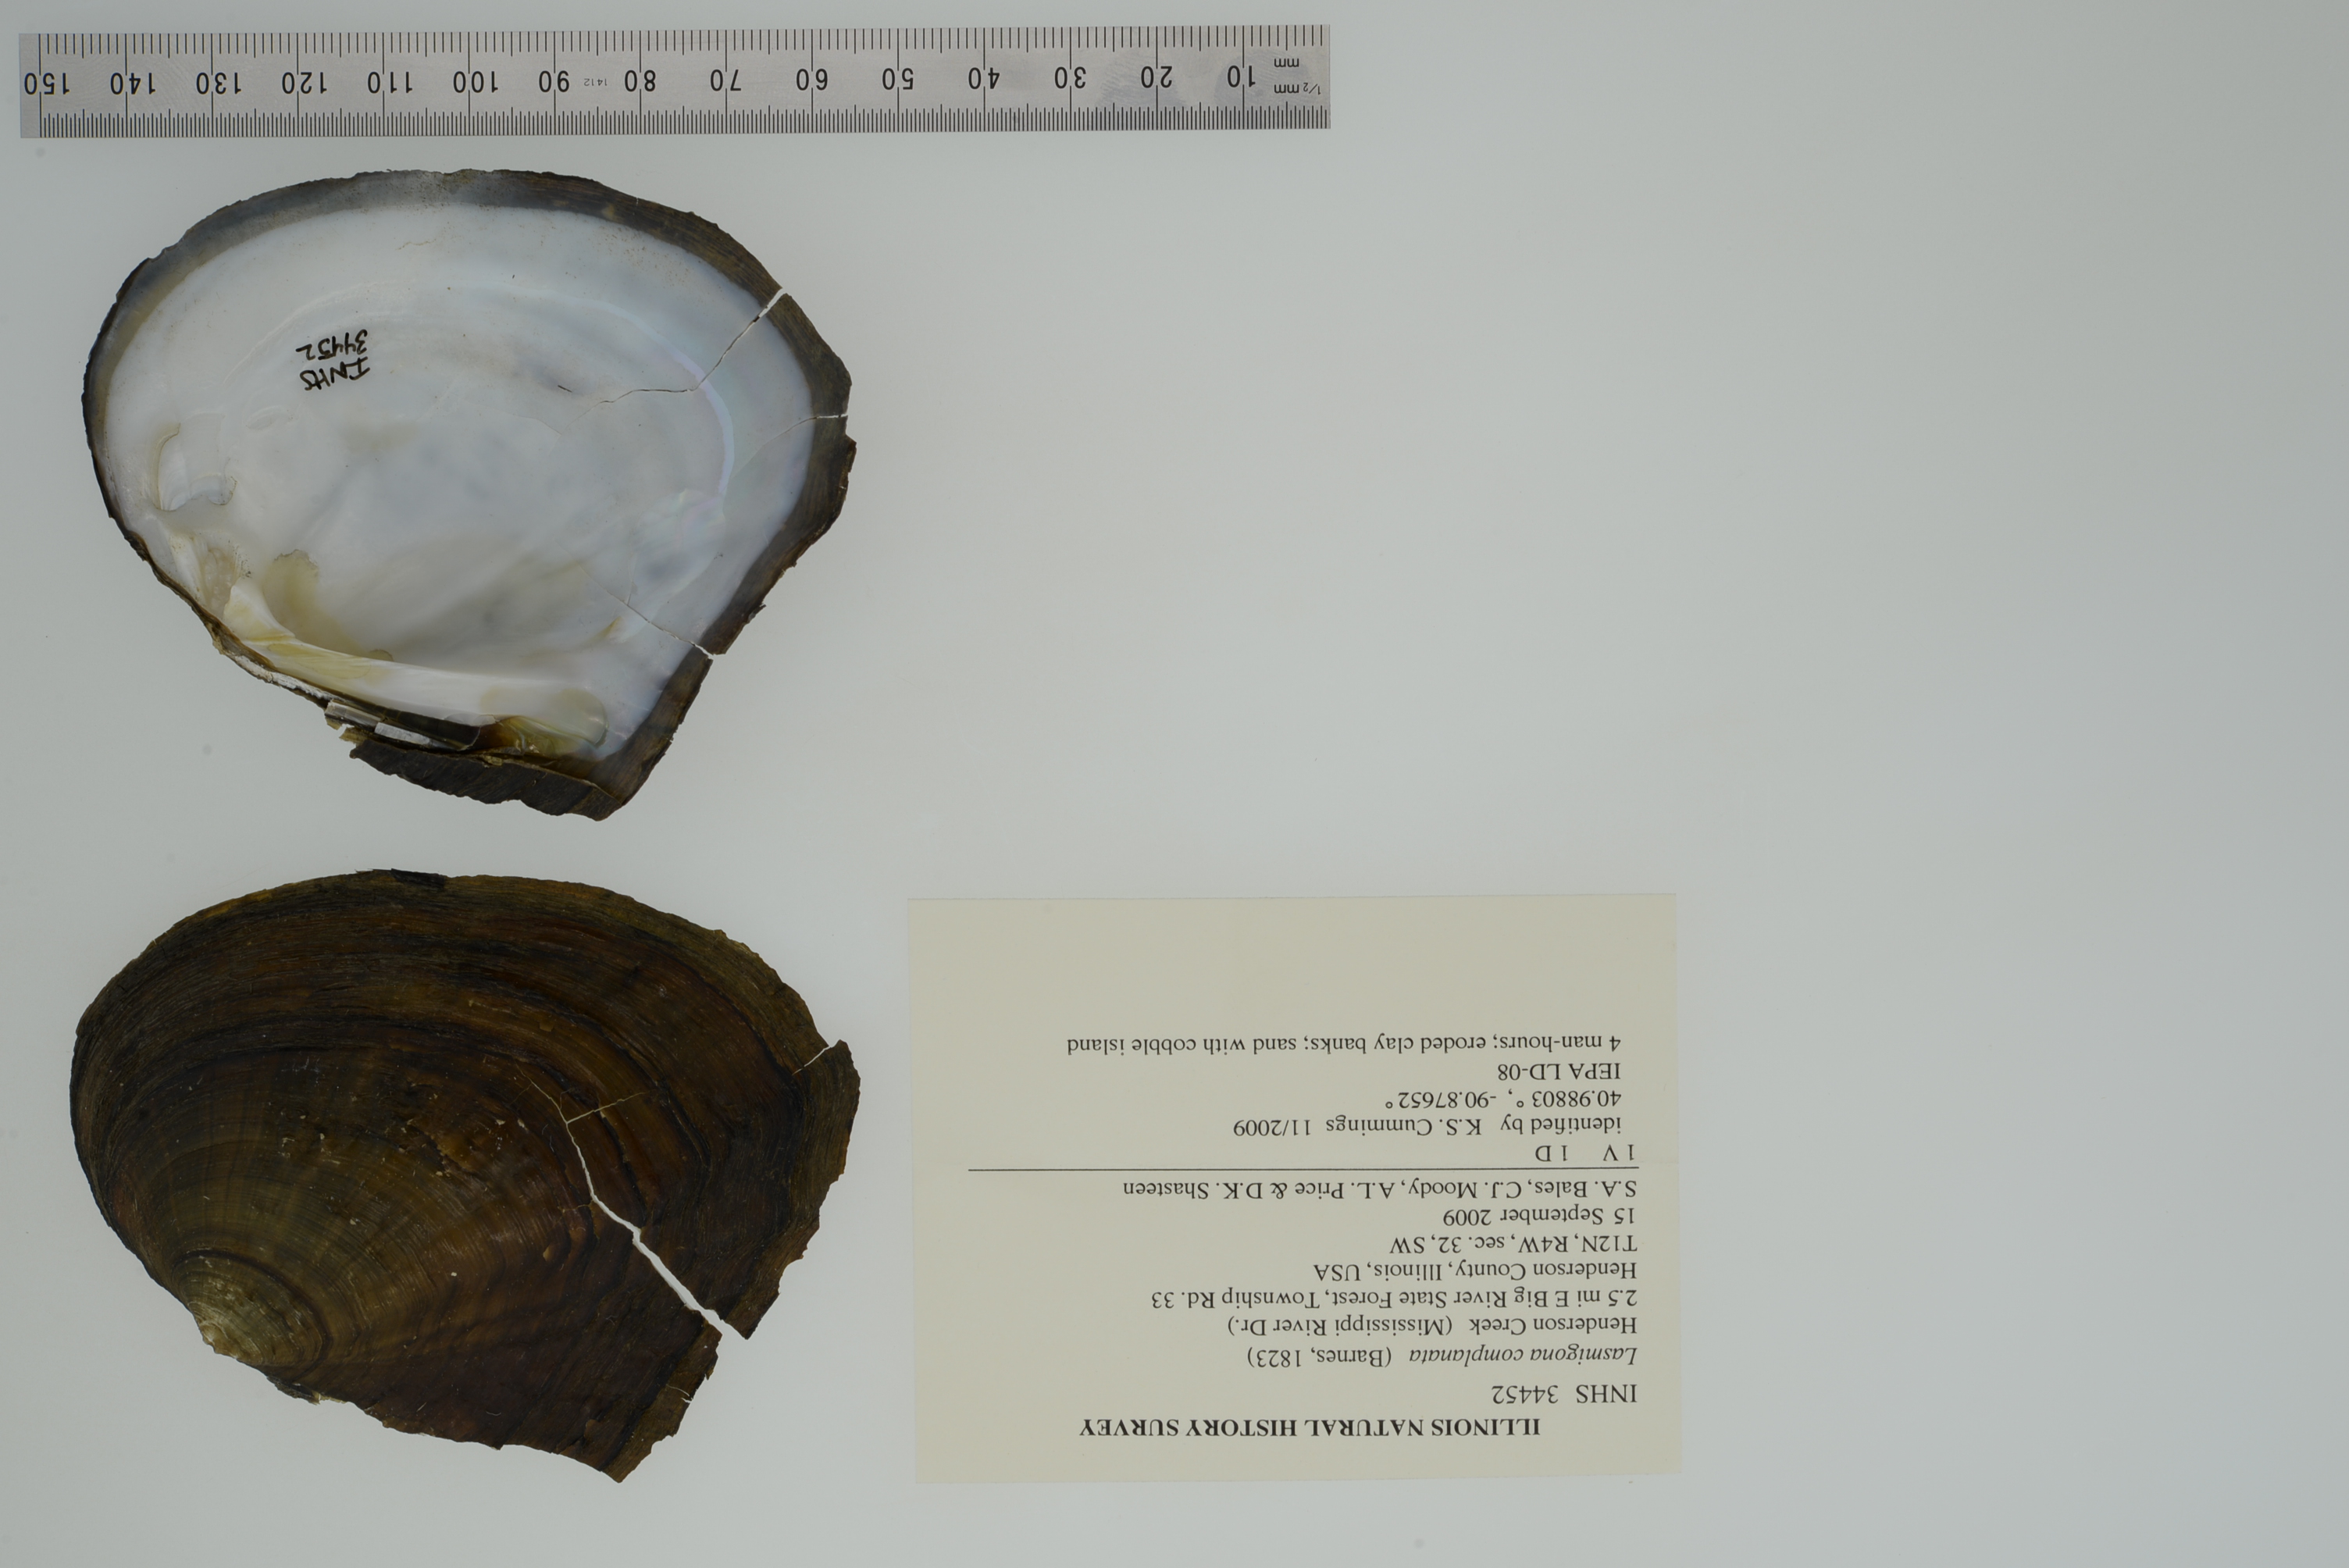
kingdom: Animalia
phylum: Mollusca
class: Bivalvia
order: Unionida
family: Unionidae
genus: Lasmigona
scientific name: Lasmigona complanata
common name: White heelsplitter
